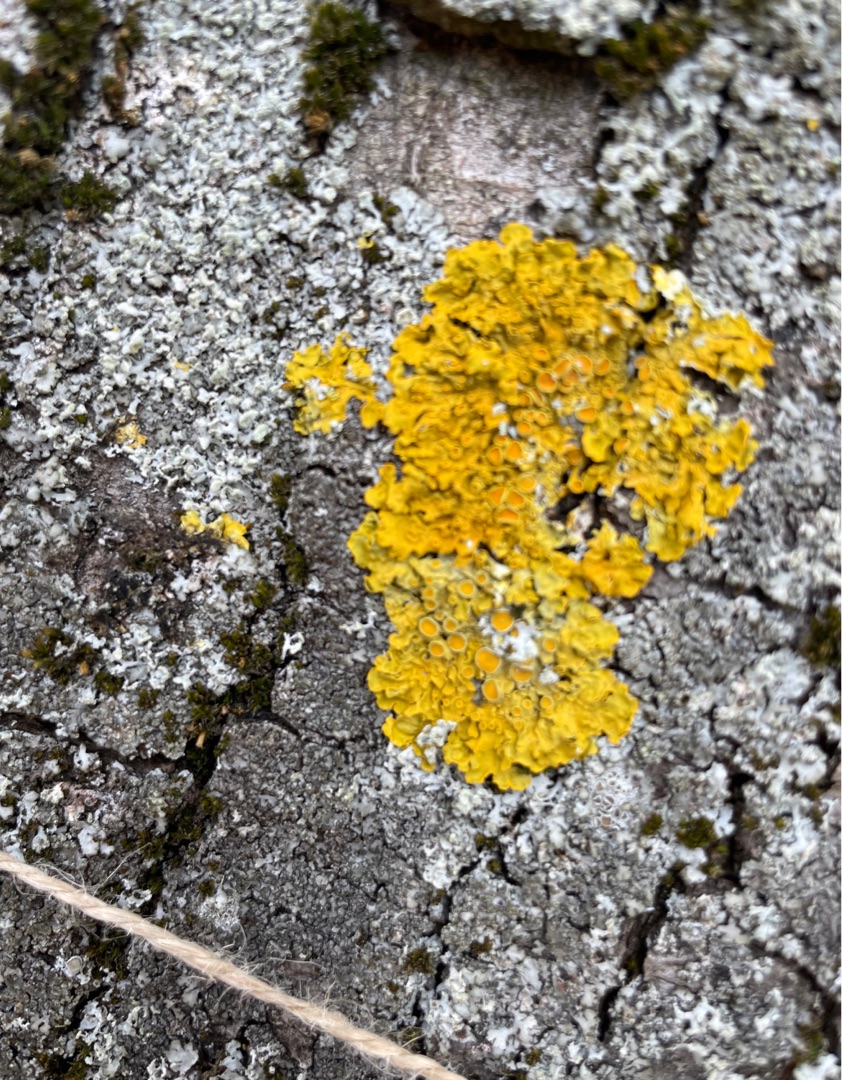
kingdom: Fungi
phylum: Ascomycota
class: Lecanoromycetes
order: Teloschistales
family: Teloschistaceae
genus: Xanthoria
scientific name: Xanthoria parietina
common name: Almindelig væggelav
